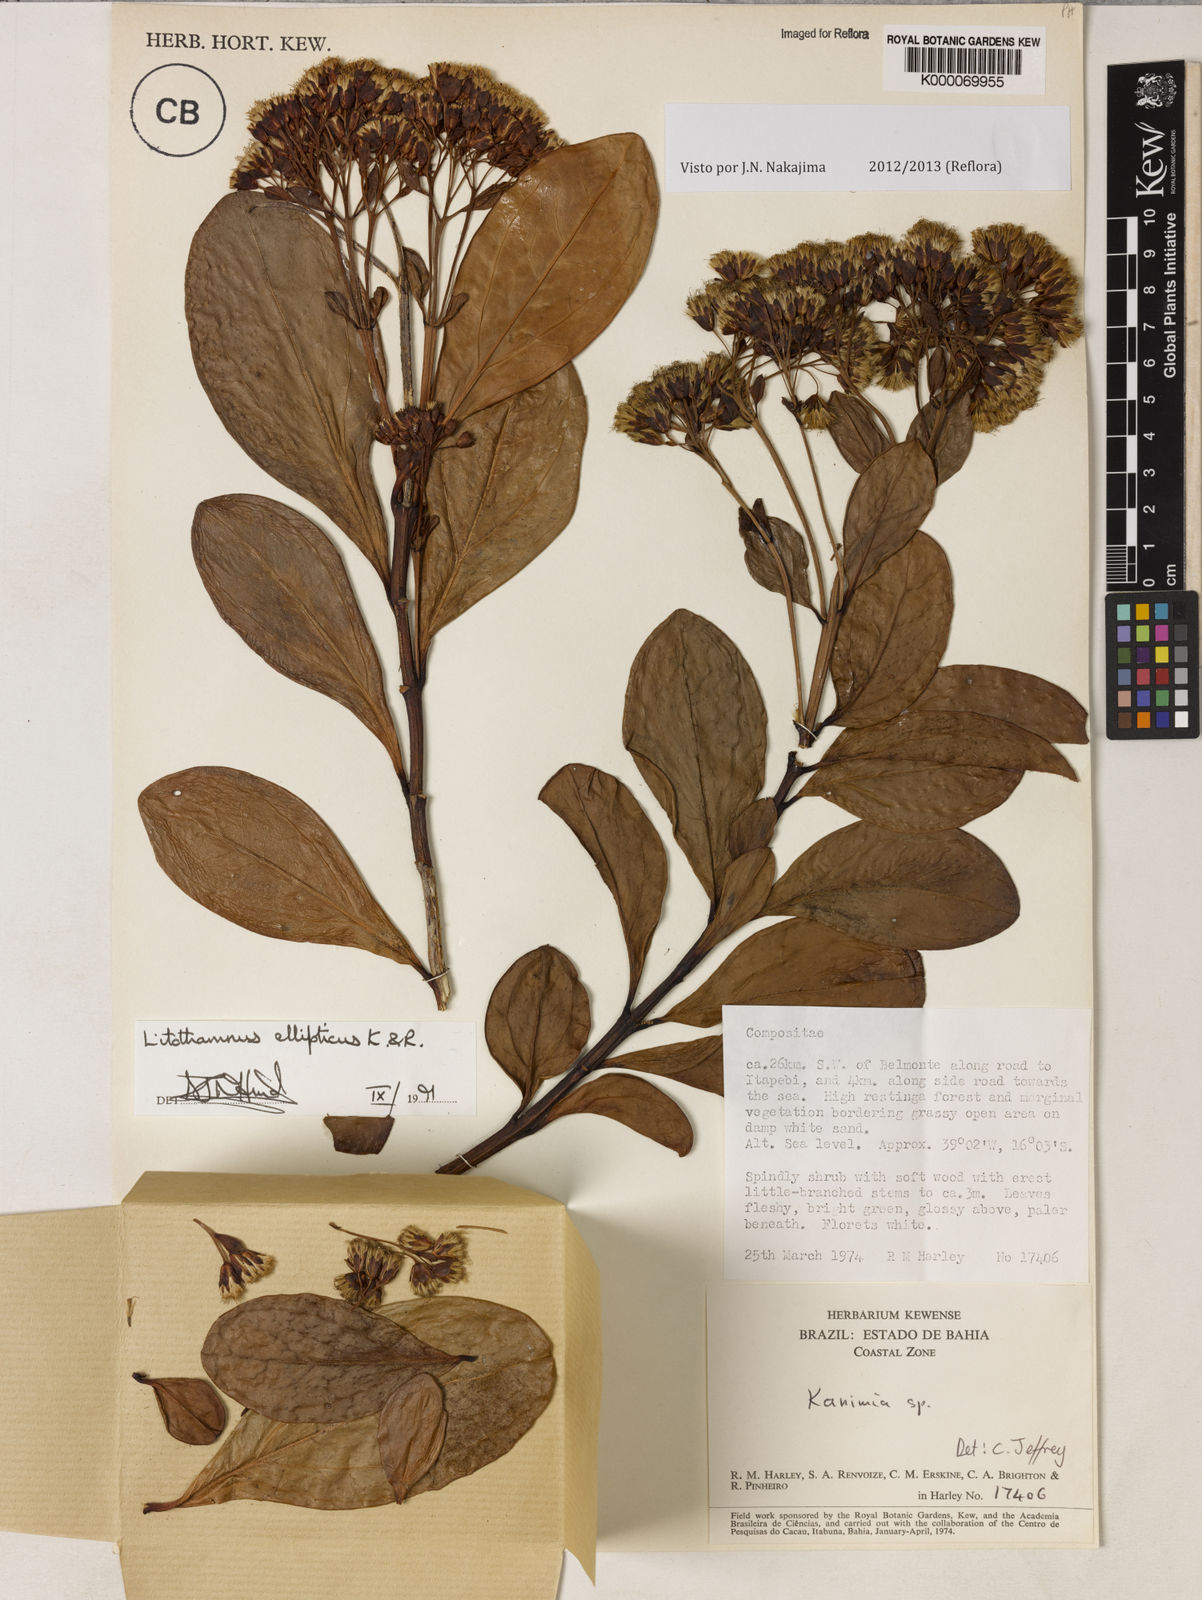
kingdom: Plantae
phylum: Tracheophyta
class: Magnoliopsida
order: Asterales
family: Asteraceae
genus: Litothamnus
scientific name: Litothamnus ellipticus
